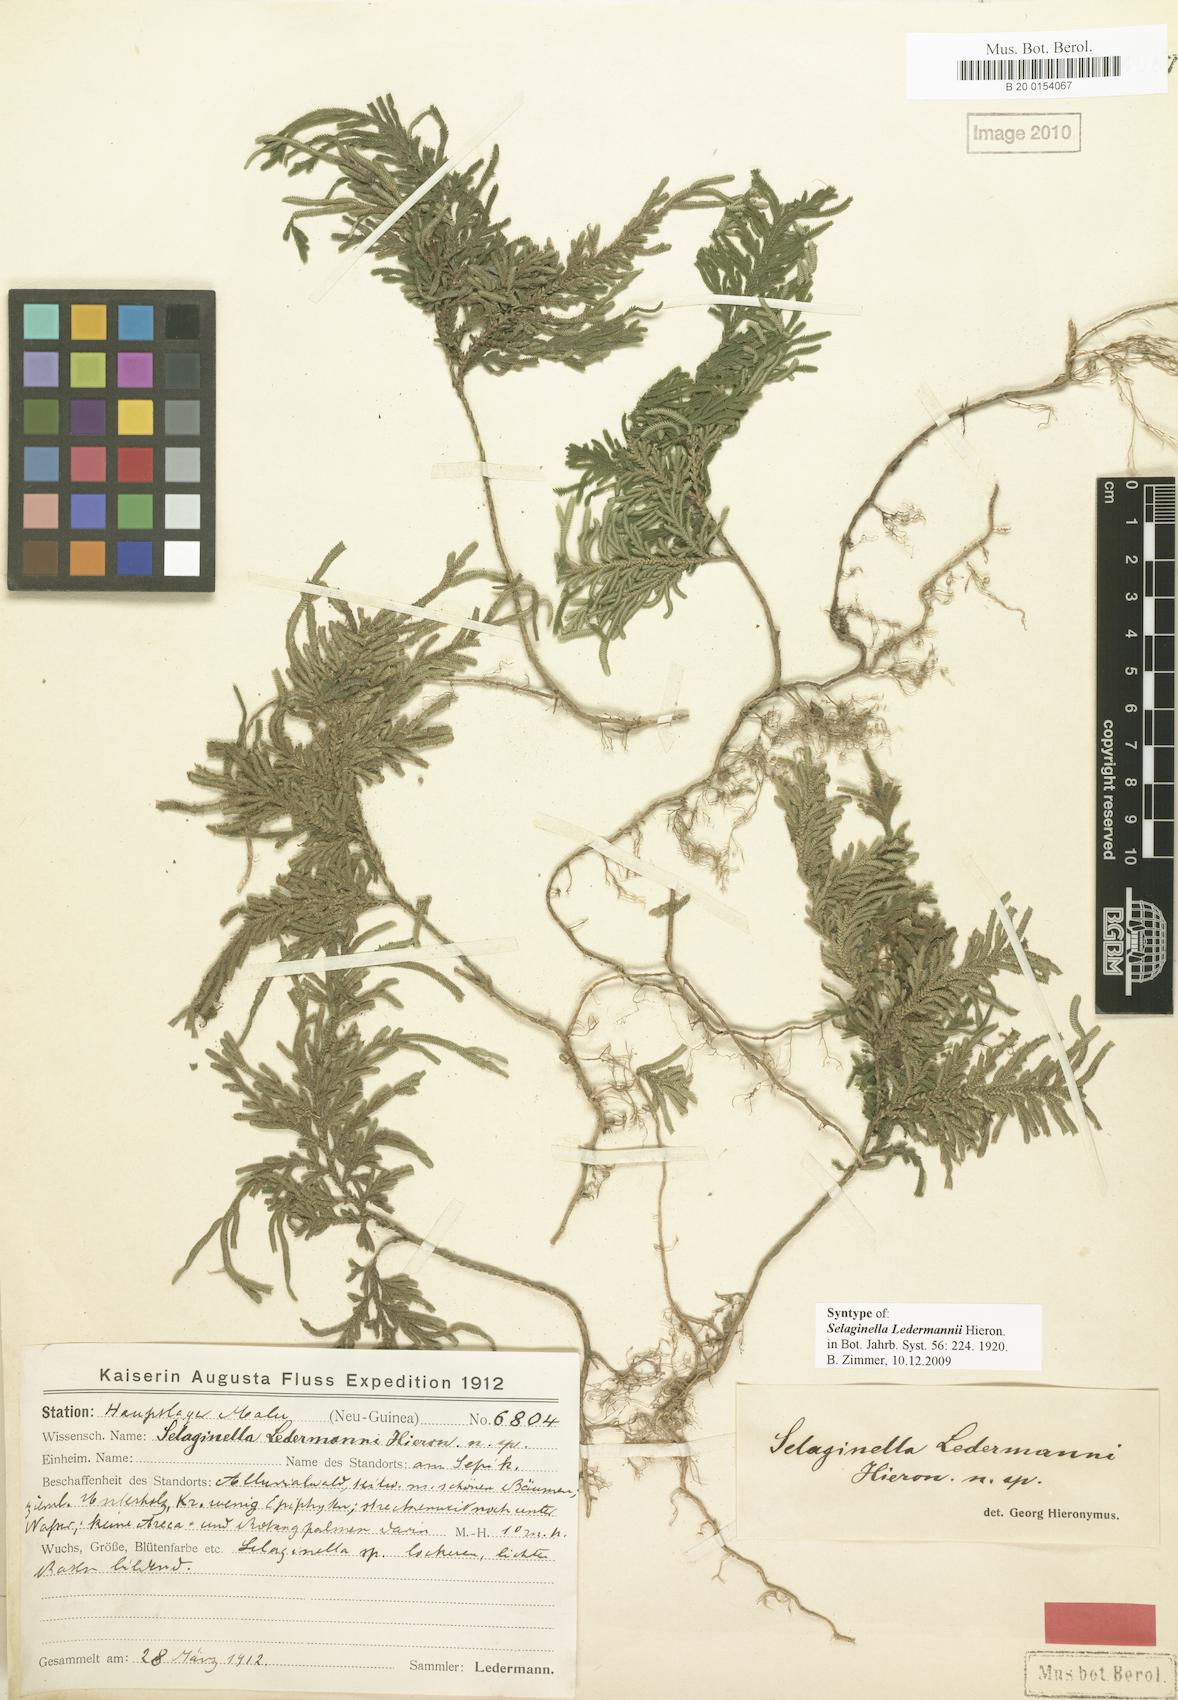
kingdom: Plantae
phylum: Tracheophyta
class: Lycopodiopsida
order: Selaginellales
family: Selaginellaceae
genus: Selaginella
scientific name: Selaginella ledermannii
